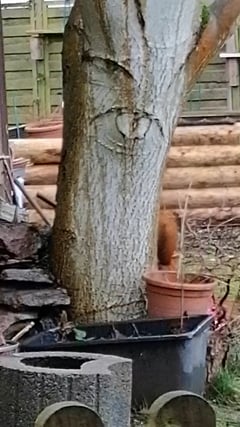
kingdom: Animalia
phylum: Chordata
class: Mammalia
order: Rodentia
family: Sciuridae
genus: Sciurus
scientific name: Sciurus vulgaris
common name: Eurasian red squirrel
